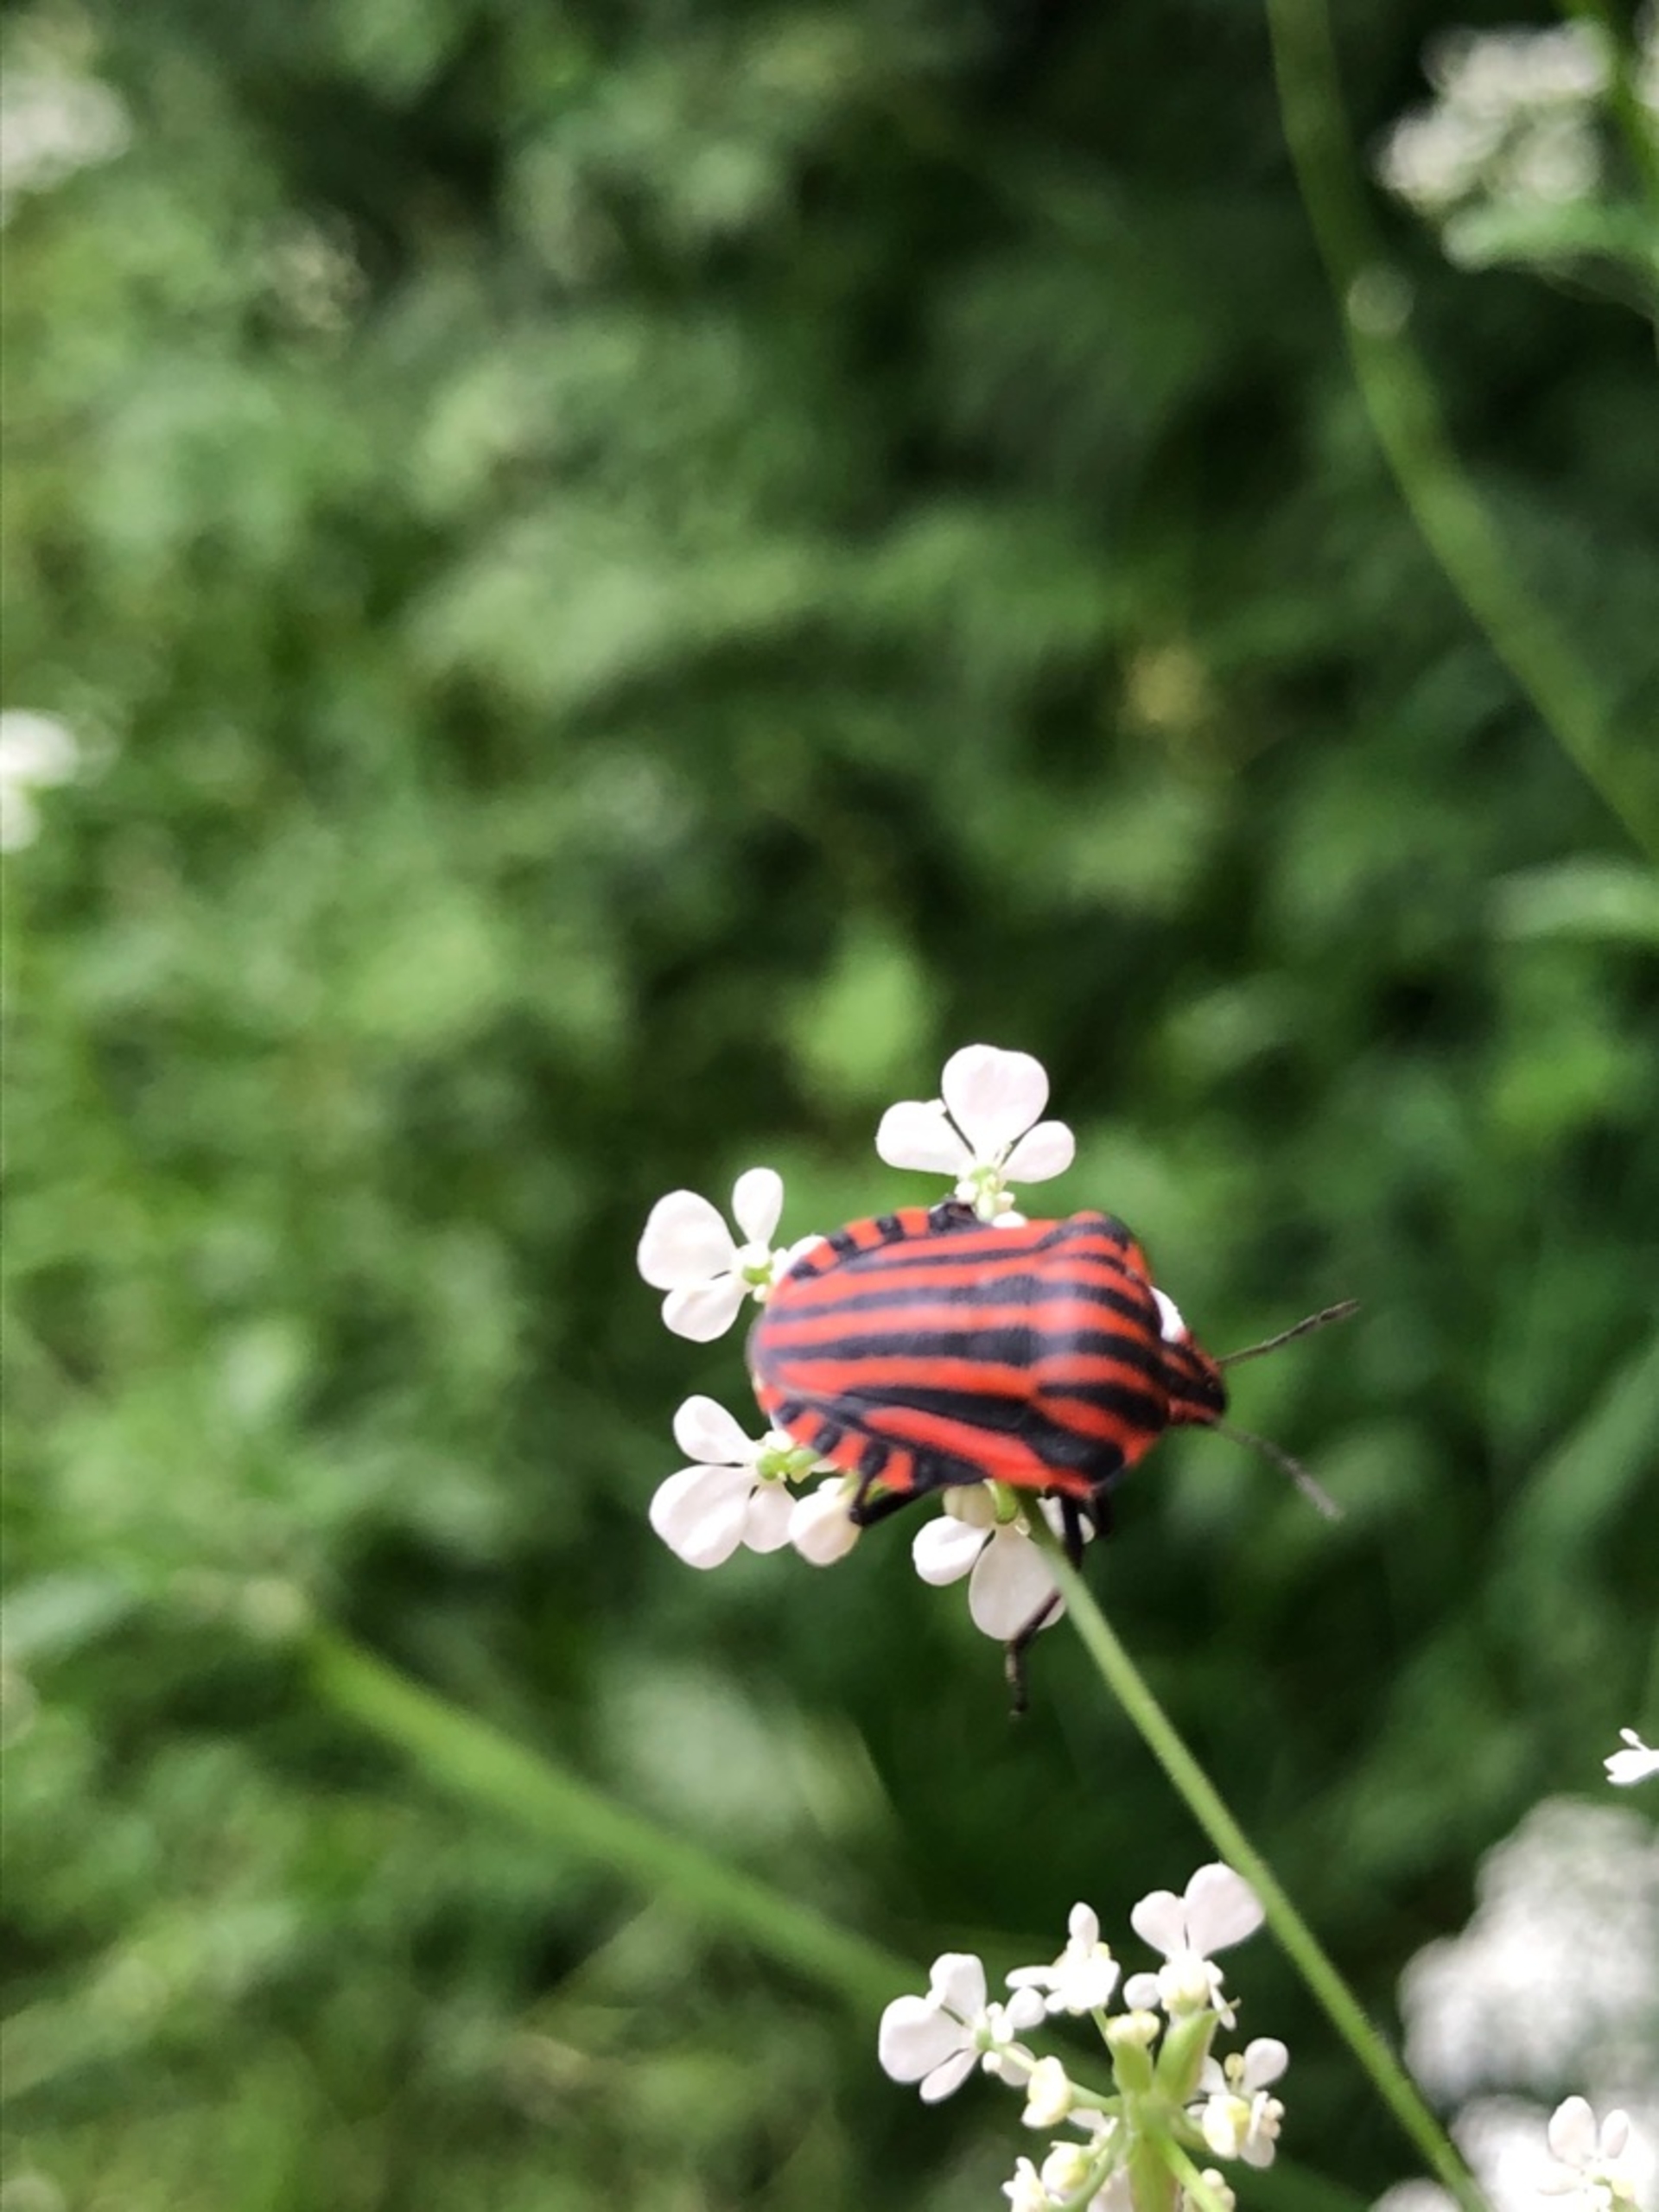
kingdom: Animalia
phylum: Arthropoda
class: Insecta
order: Hemiptera
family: Pentatomidae
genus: Graphosoma
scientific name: Graphosoma italicum
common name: Stribetæge
